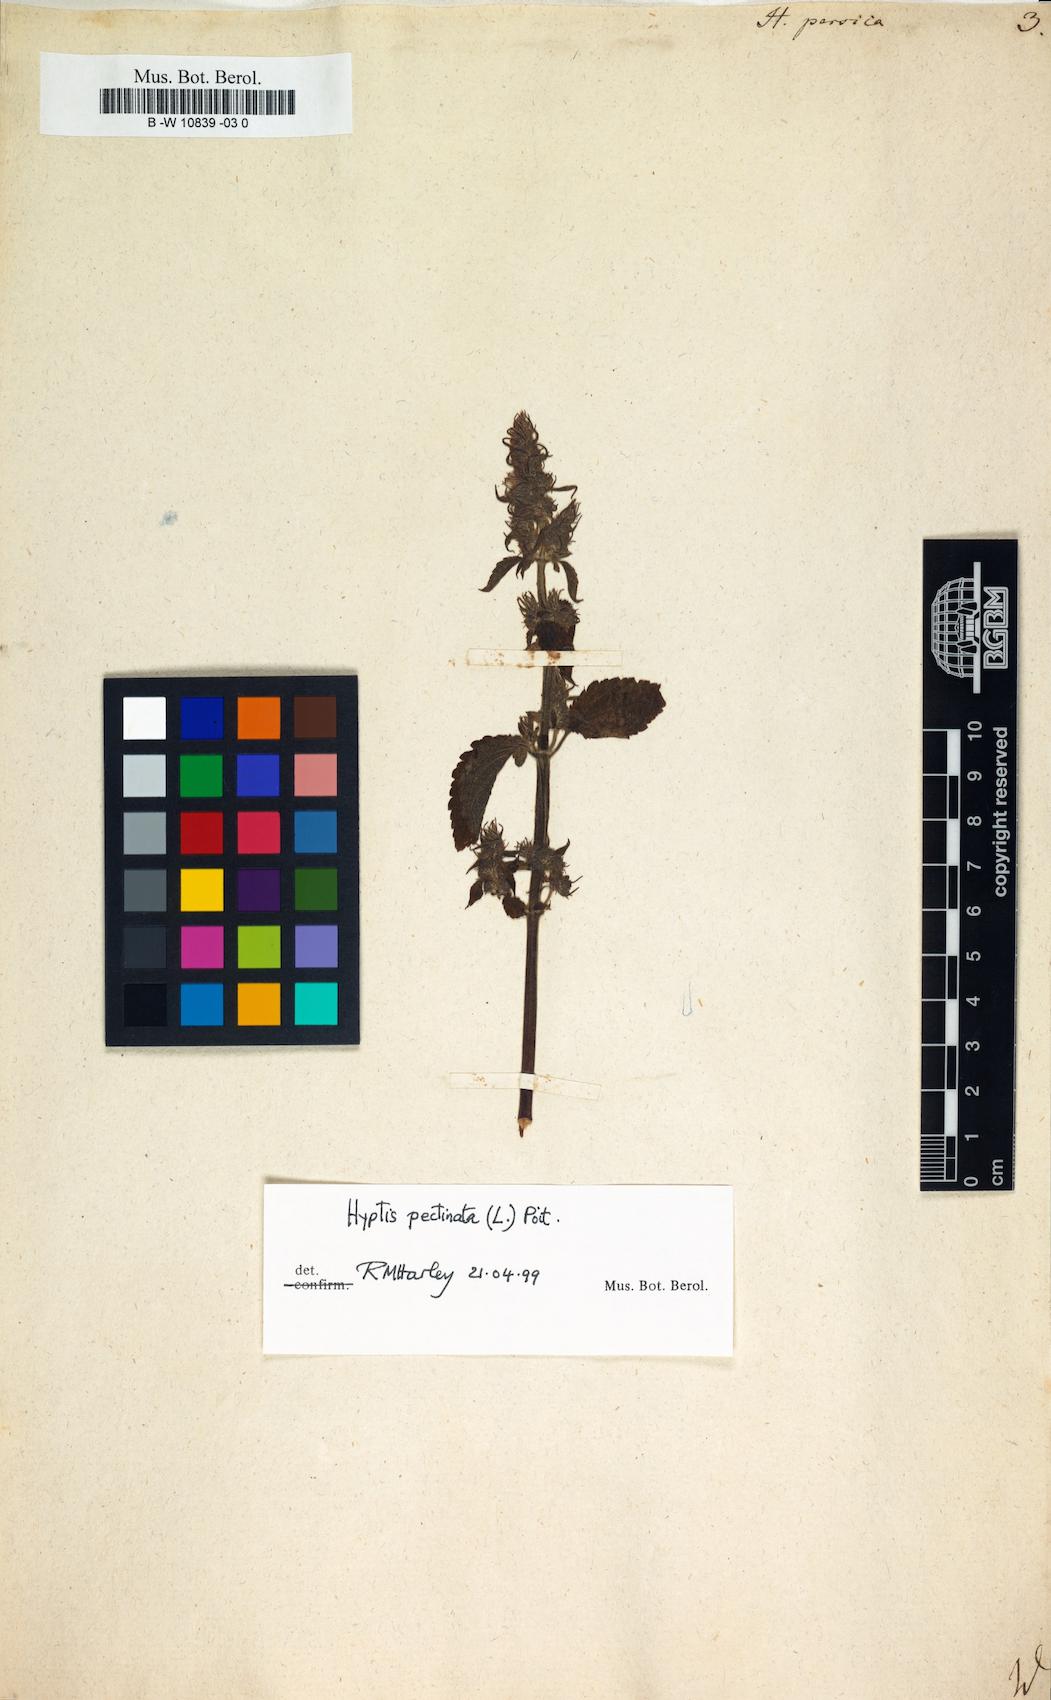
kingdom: Plantae
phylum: Tracheophyta
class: Magnoliopsida
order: Lamiales
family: Lamiaceae
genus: Mesosphaerum
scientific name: Mesosphaerum pectinatum
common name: Comb hyptis
